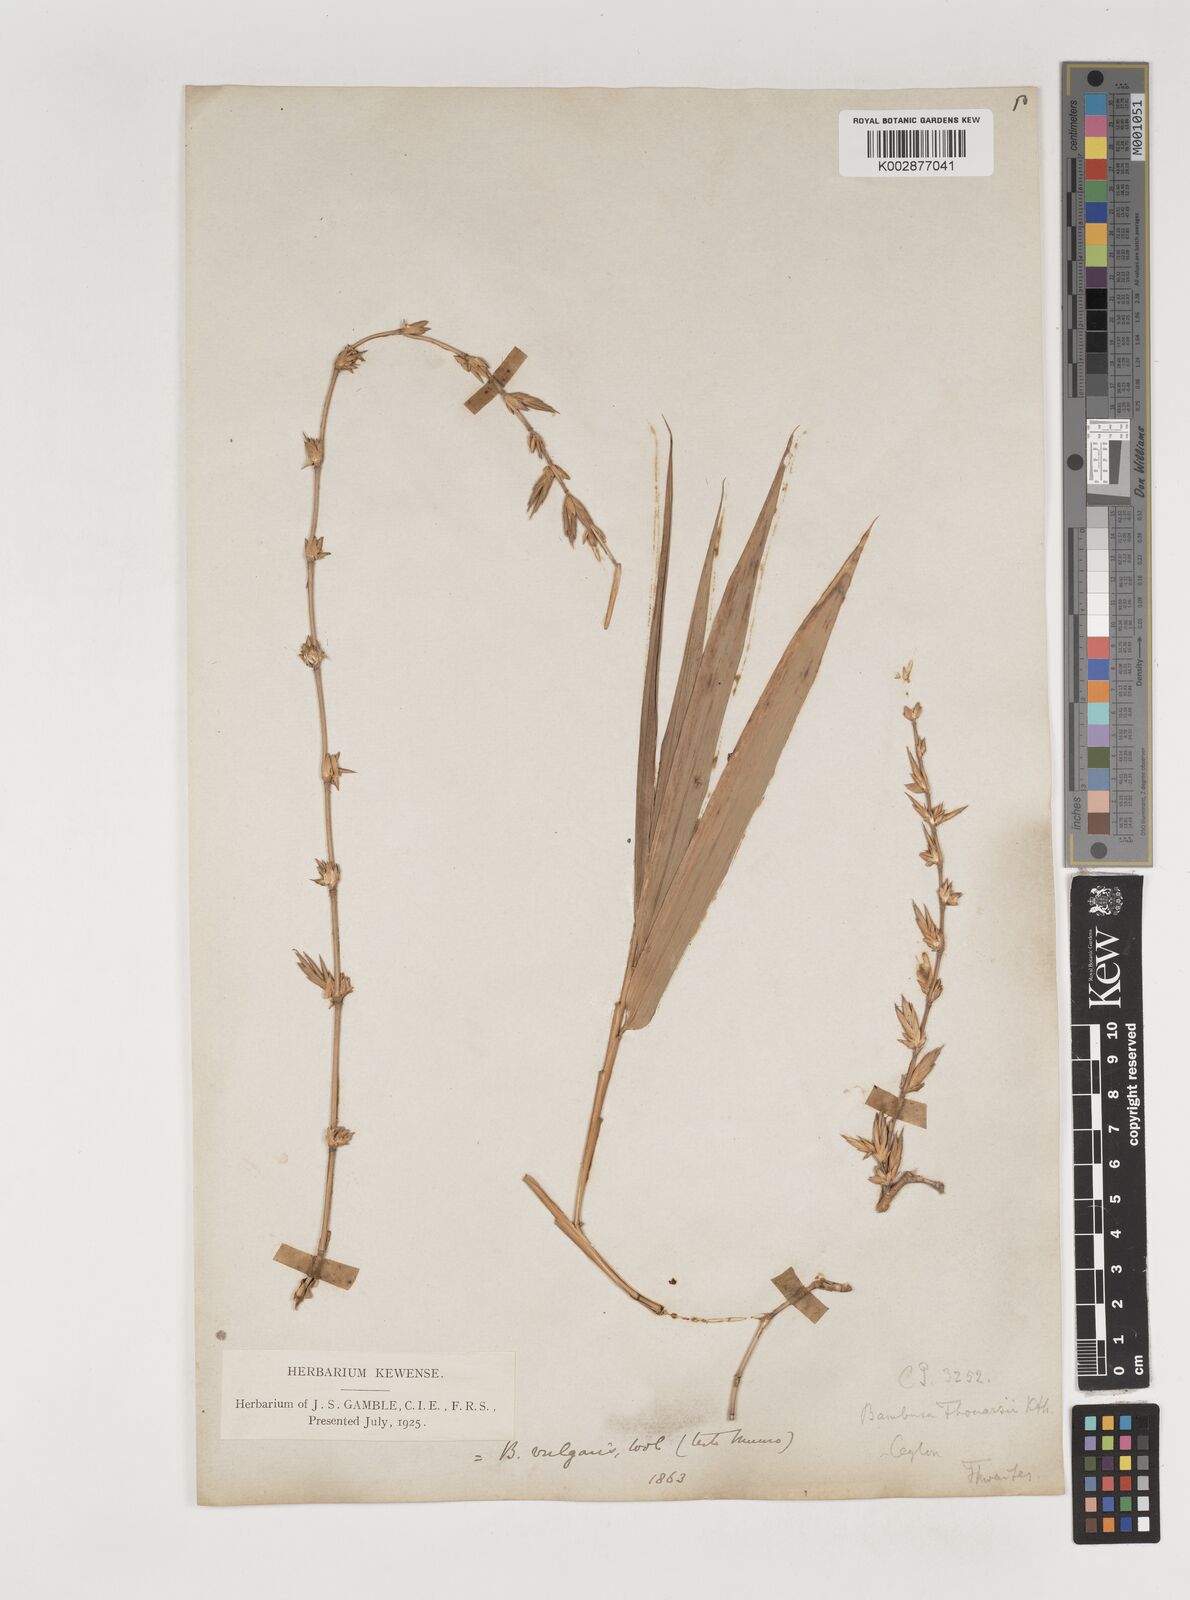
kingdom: Plantae
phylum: Tracheophyta
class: Liliopsida
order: Poales
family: Poaceae
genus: Bambusa
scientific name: Bambusa vulgaris
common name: Common bamboo
